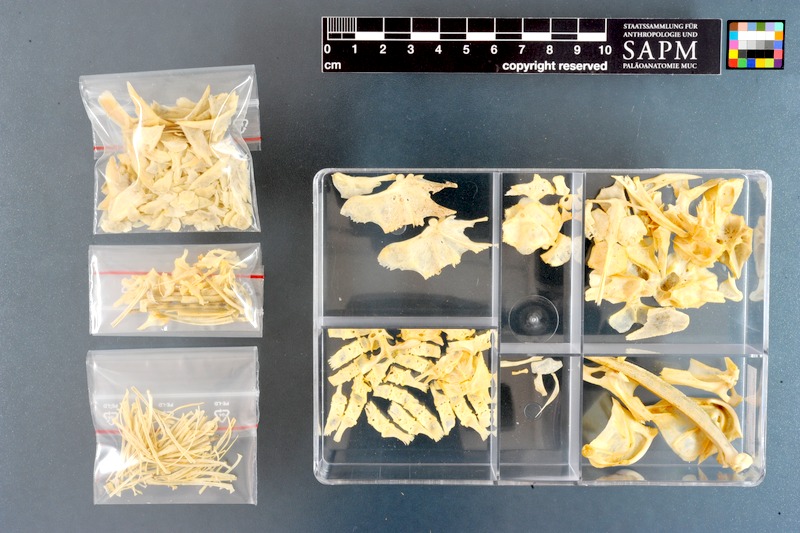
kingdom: Animalia
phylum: Chordata
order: Siluriformes
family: Loricariidae
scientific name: Loricariidae
